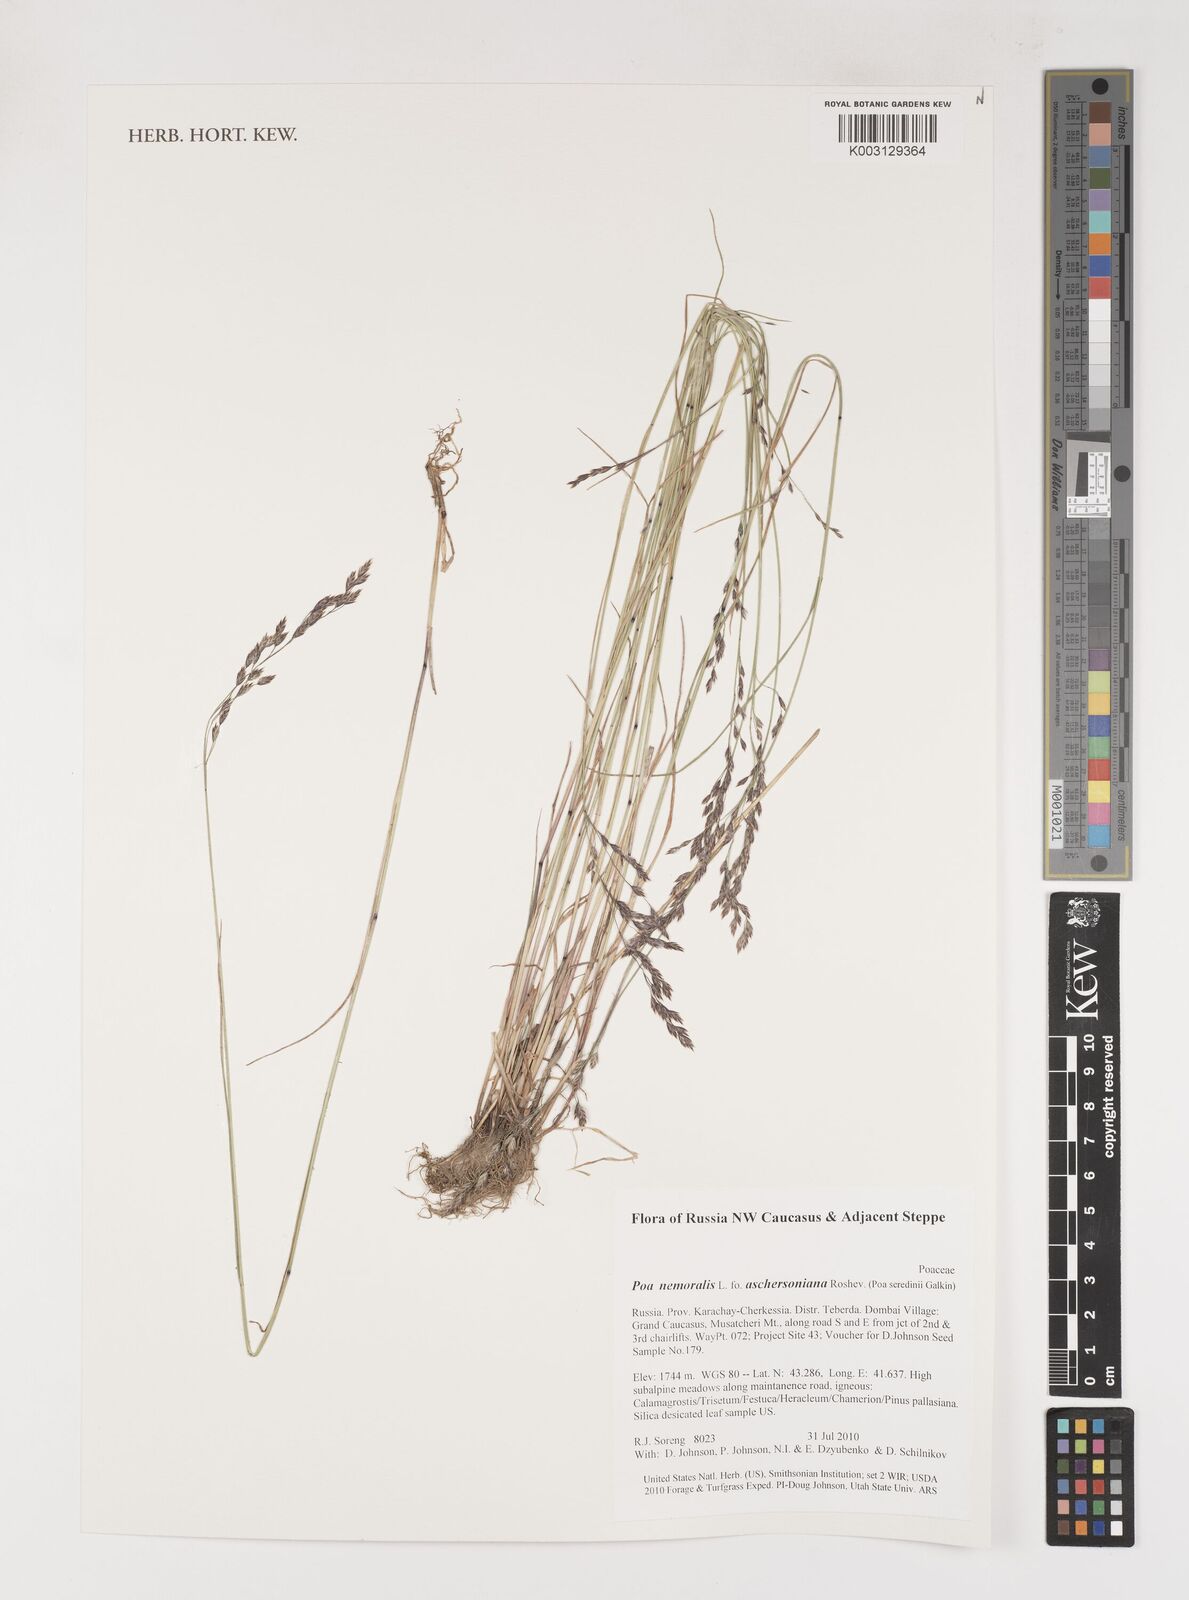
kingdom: Plantae
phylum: Tracheophyta
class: Liliopsida
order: Poales
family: Poaceae
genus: Poa
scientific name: Poa palustris
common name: Swamp meadow-grass
